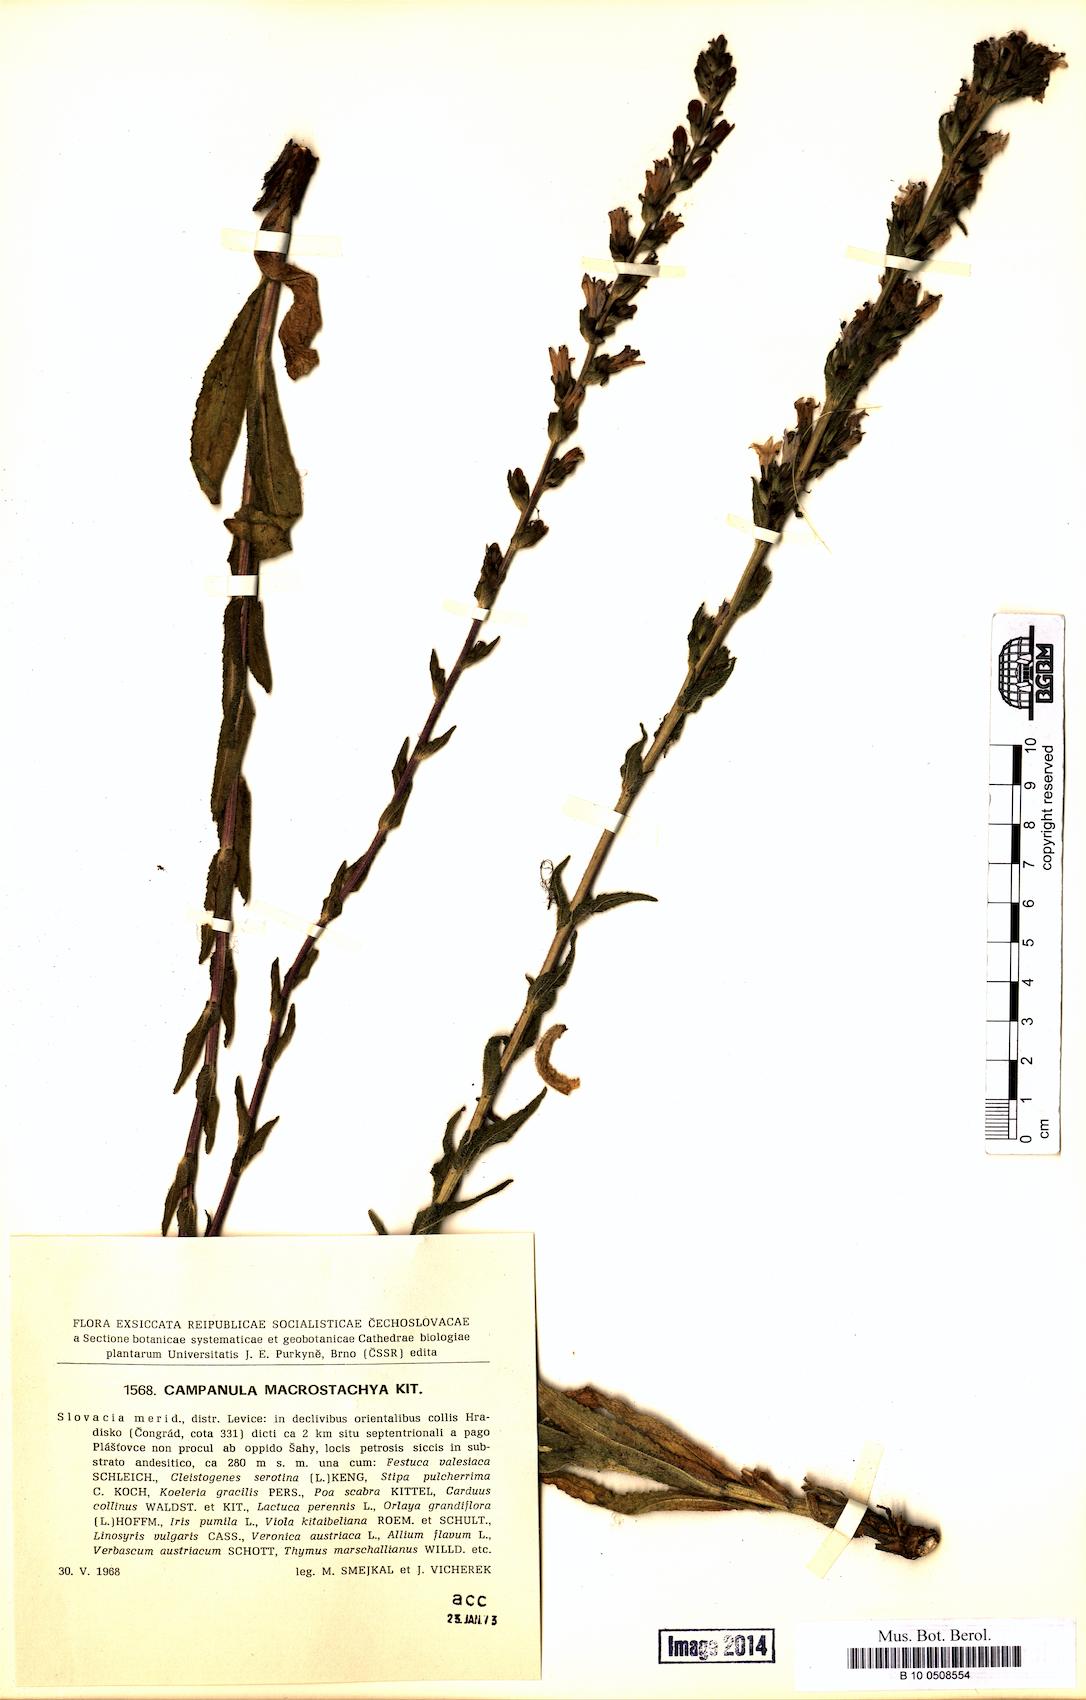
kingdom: Plantae
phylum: Tracheophyta
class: Magnoliopsida
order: Asterales
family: Campanulaceae
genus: Campanula
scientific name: Campanula macrostachya
